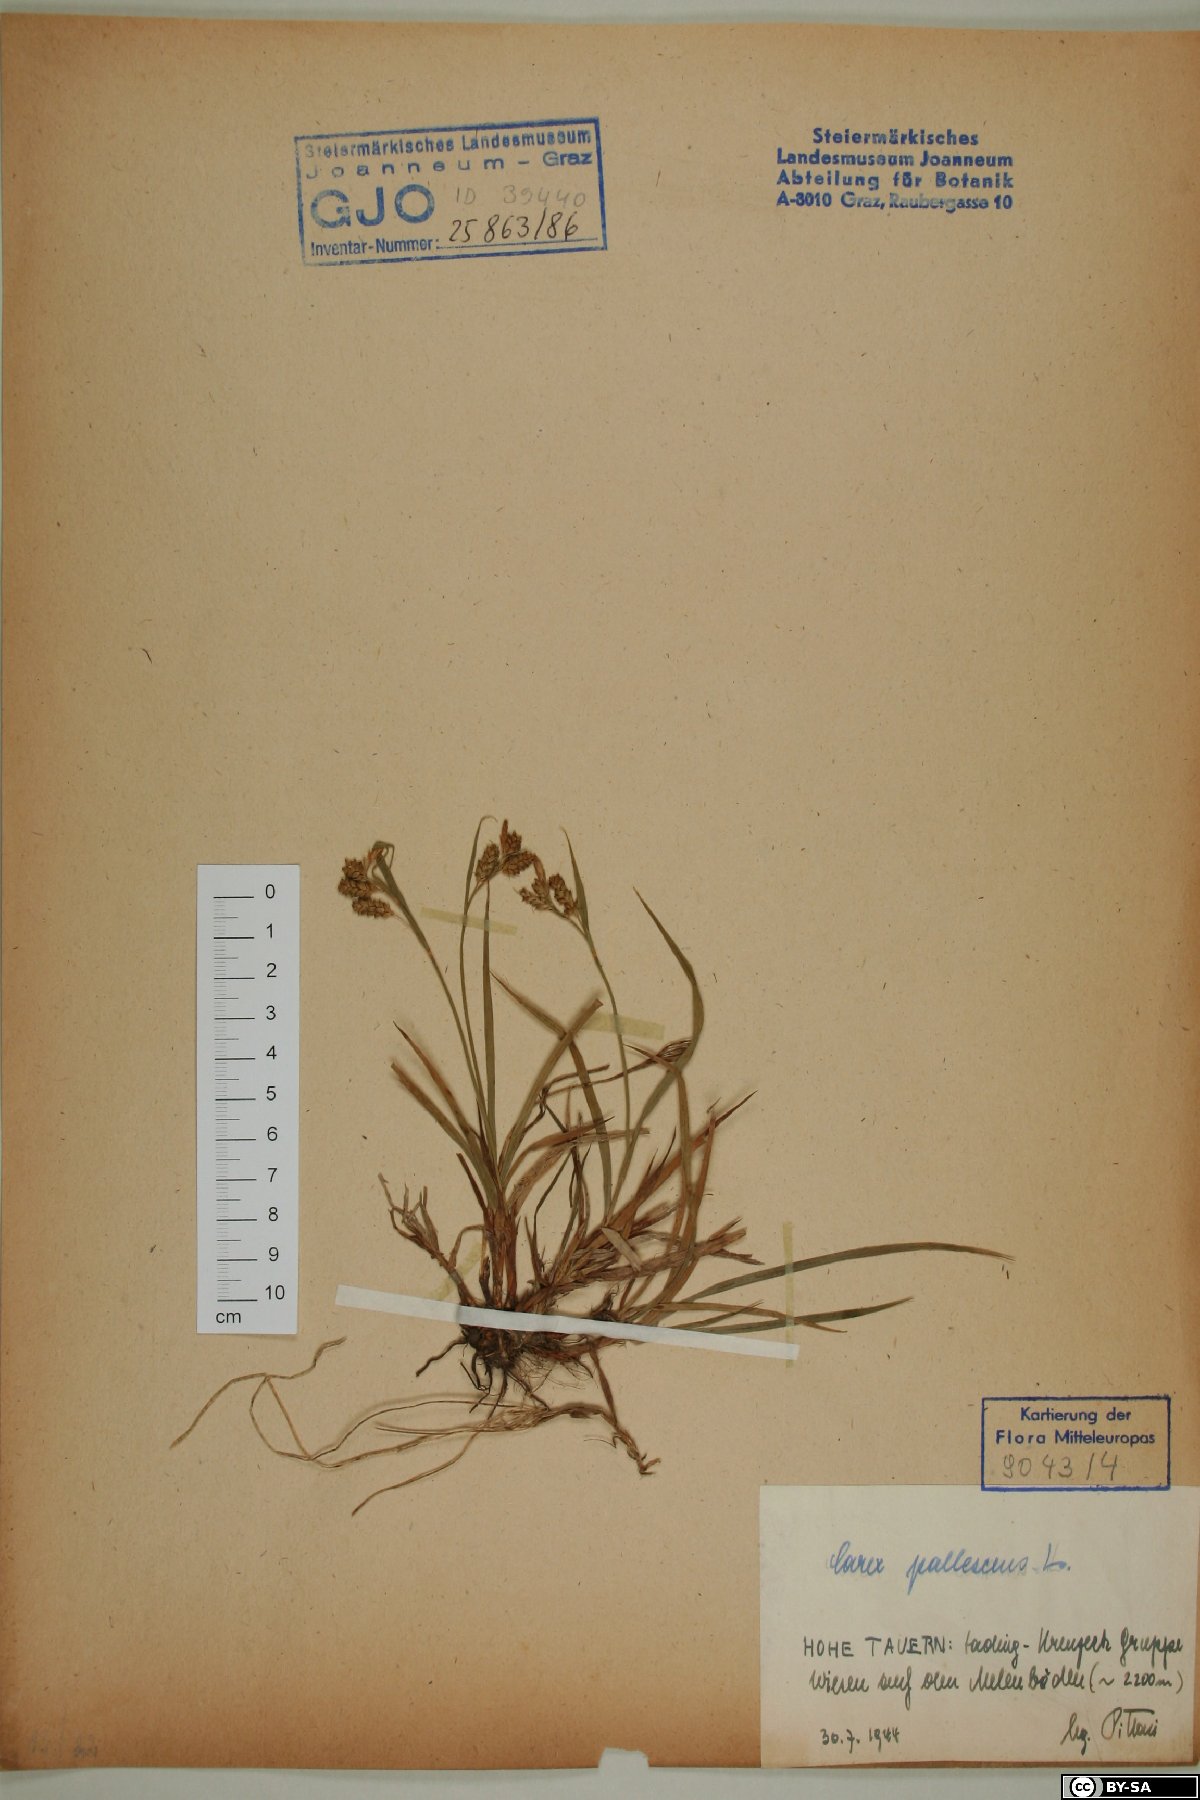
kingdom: Plantae
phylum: Tracheophyta
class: Liliopsida
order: Poales
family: Cyperaceae
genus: Carex
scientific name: Carex pallescens
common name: Pale sedge
